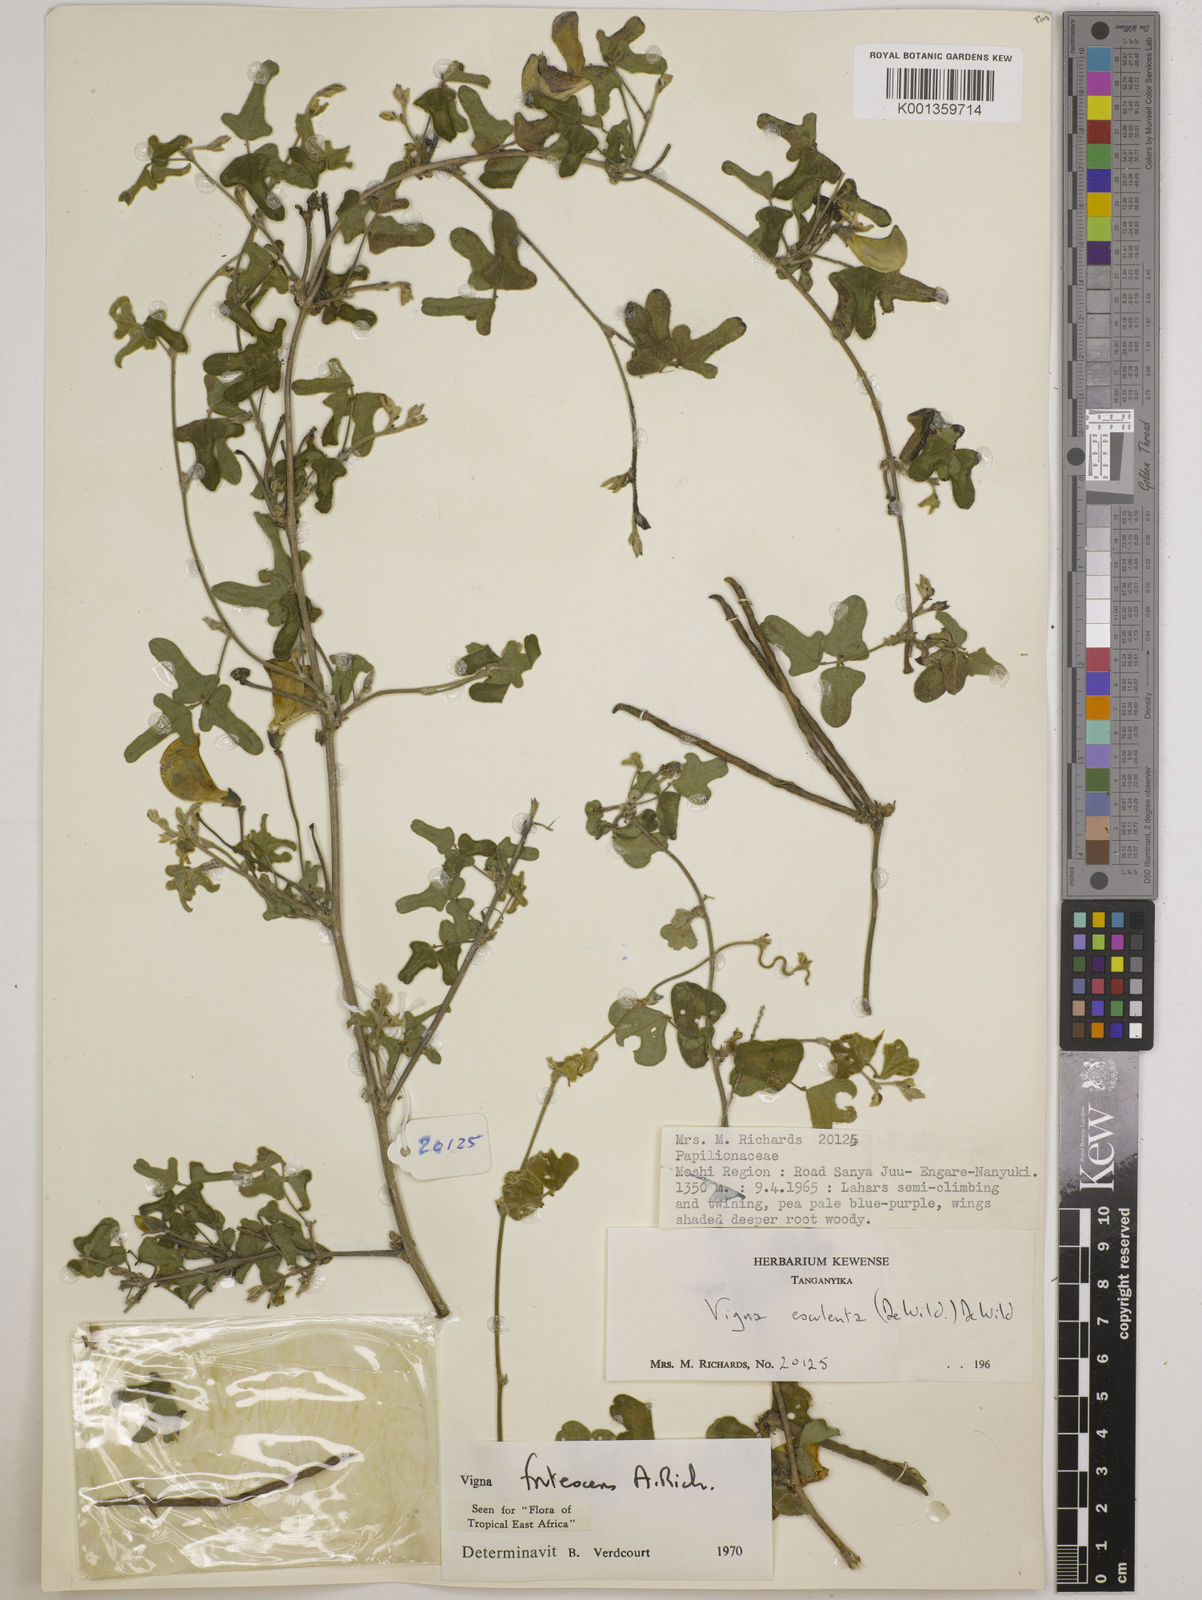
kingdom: Plantae
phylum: Tracheophyta
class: Magnoliopsida
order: Fabales
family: Fabaceae
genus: Vigna
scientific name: Vigna frutescens
